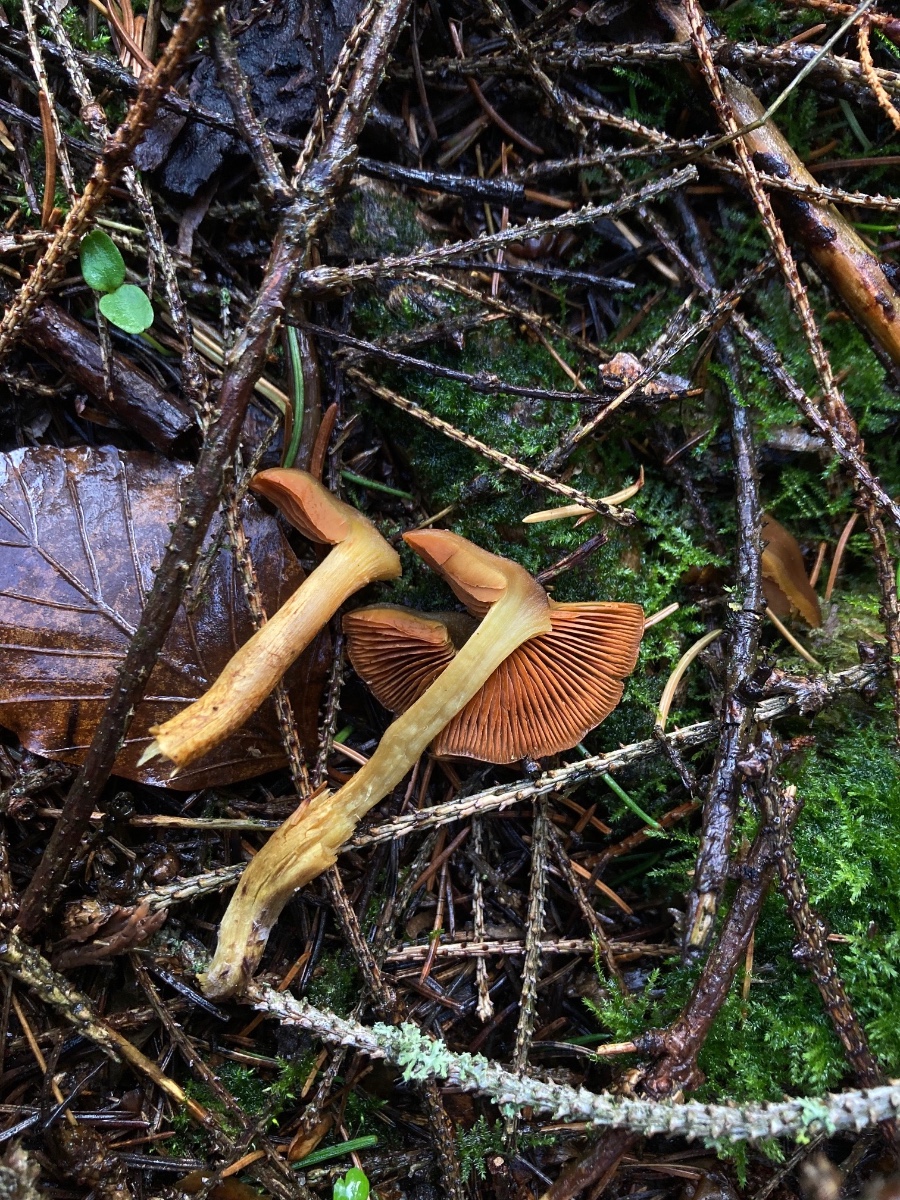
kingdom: Fungi
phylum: Basidiomycota
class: Agaricomycetes
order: Agaricales
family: Cortinariaceae
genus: Cortinarius
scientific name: Cortinarius malicorius
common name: grønkødet slørhat
